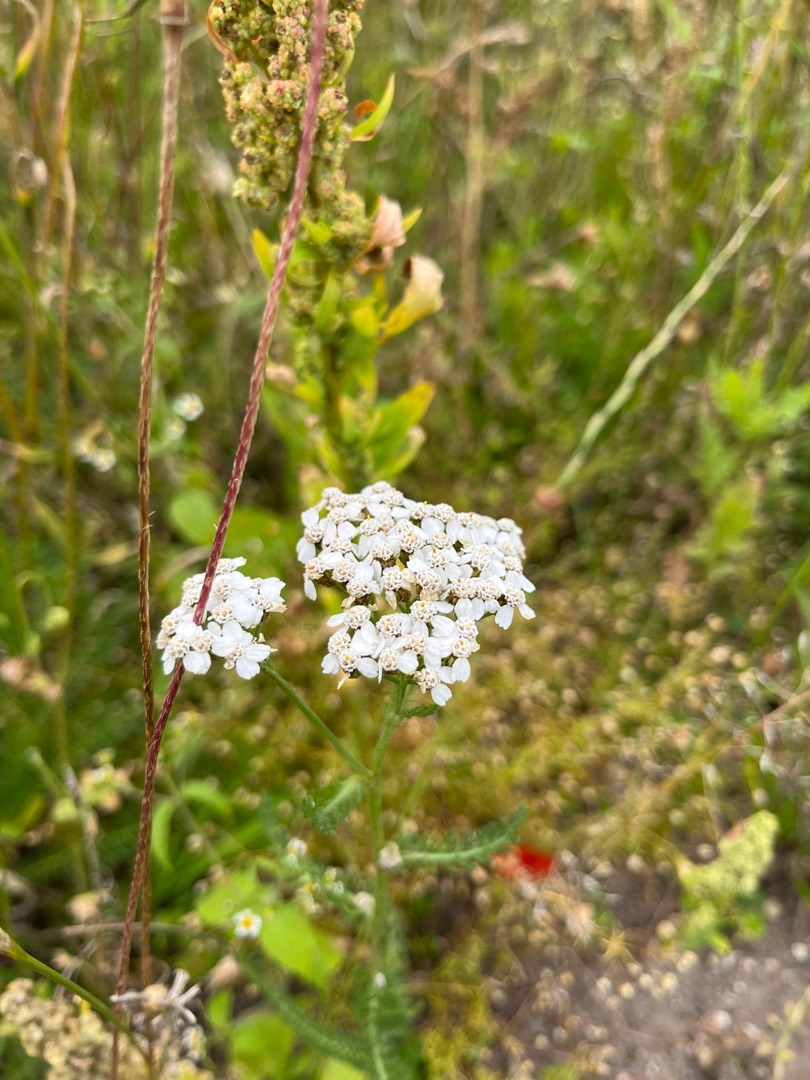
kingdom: Plantae
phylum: Tracheophyta
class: Magnoliopsida
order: Asterales
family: Asteraceae
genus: Achillea
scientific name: Achillea millefolium
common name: Almindelig røllike
